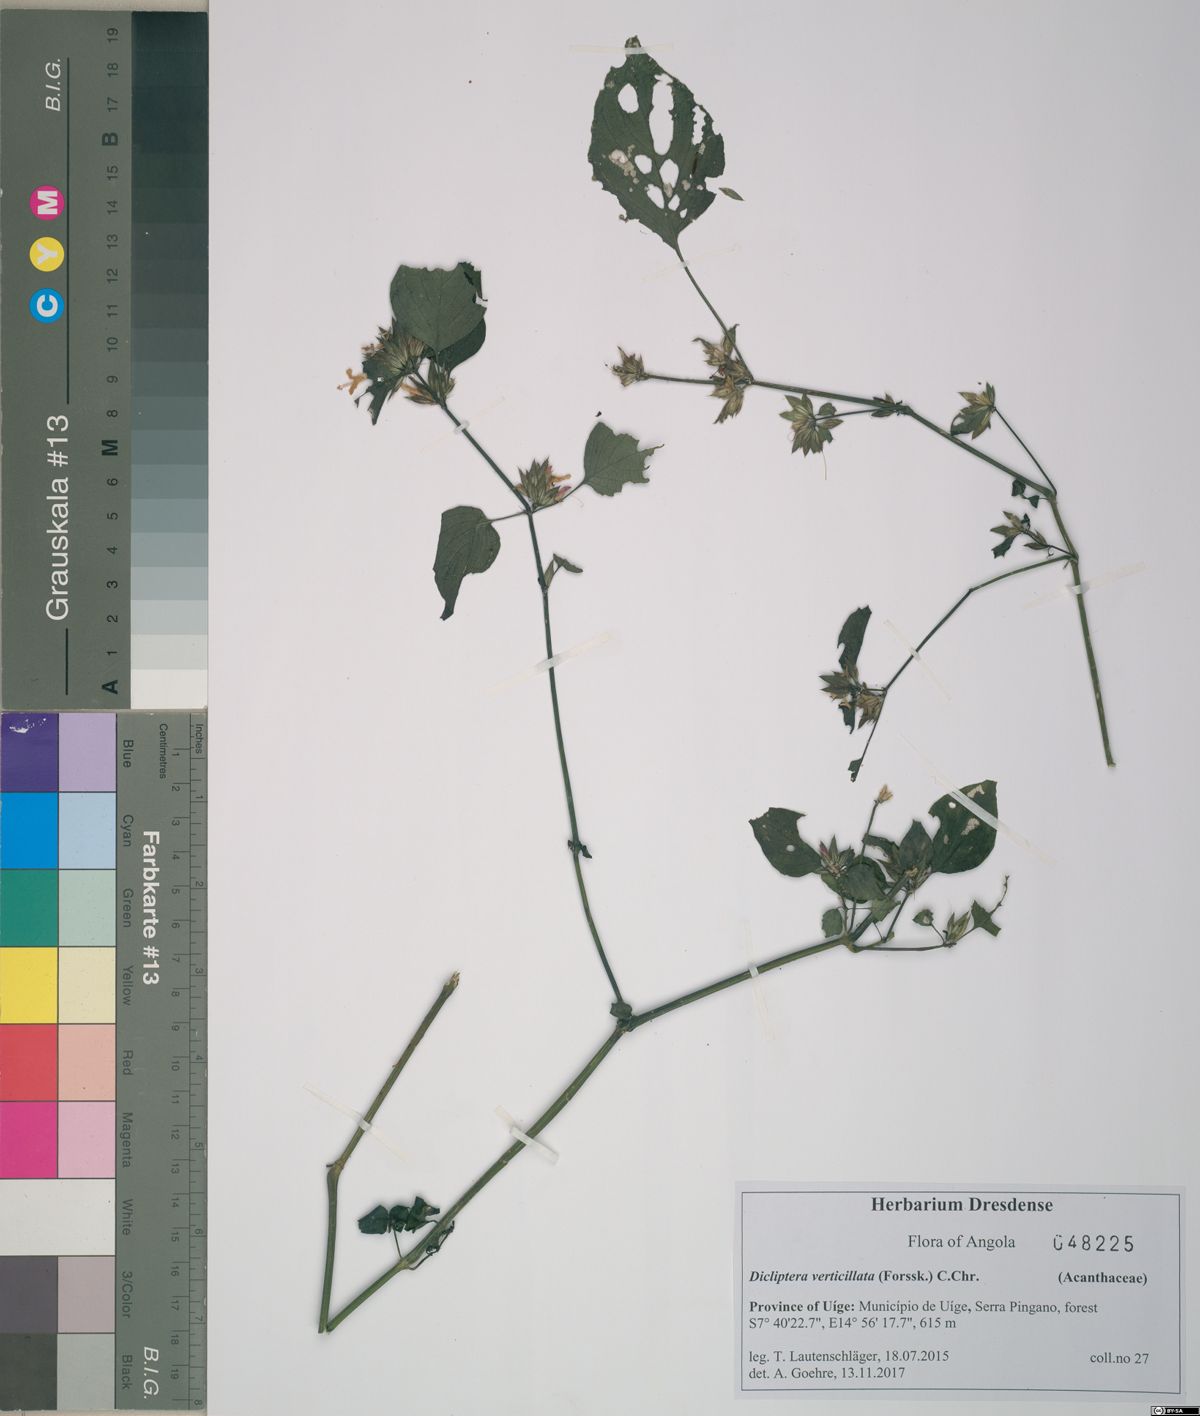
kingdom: Plantae
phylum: Tracheophyta
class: Magnoliopsida
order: Lamiales
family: Acanthaceae
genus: Dicliptera
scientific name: Dicliptera verticillata
